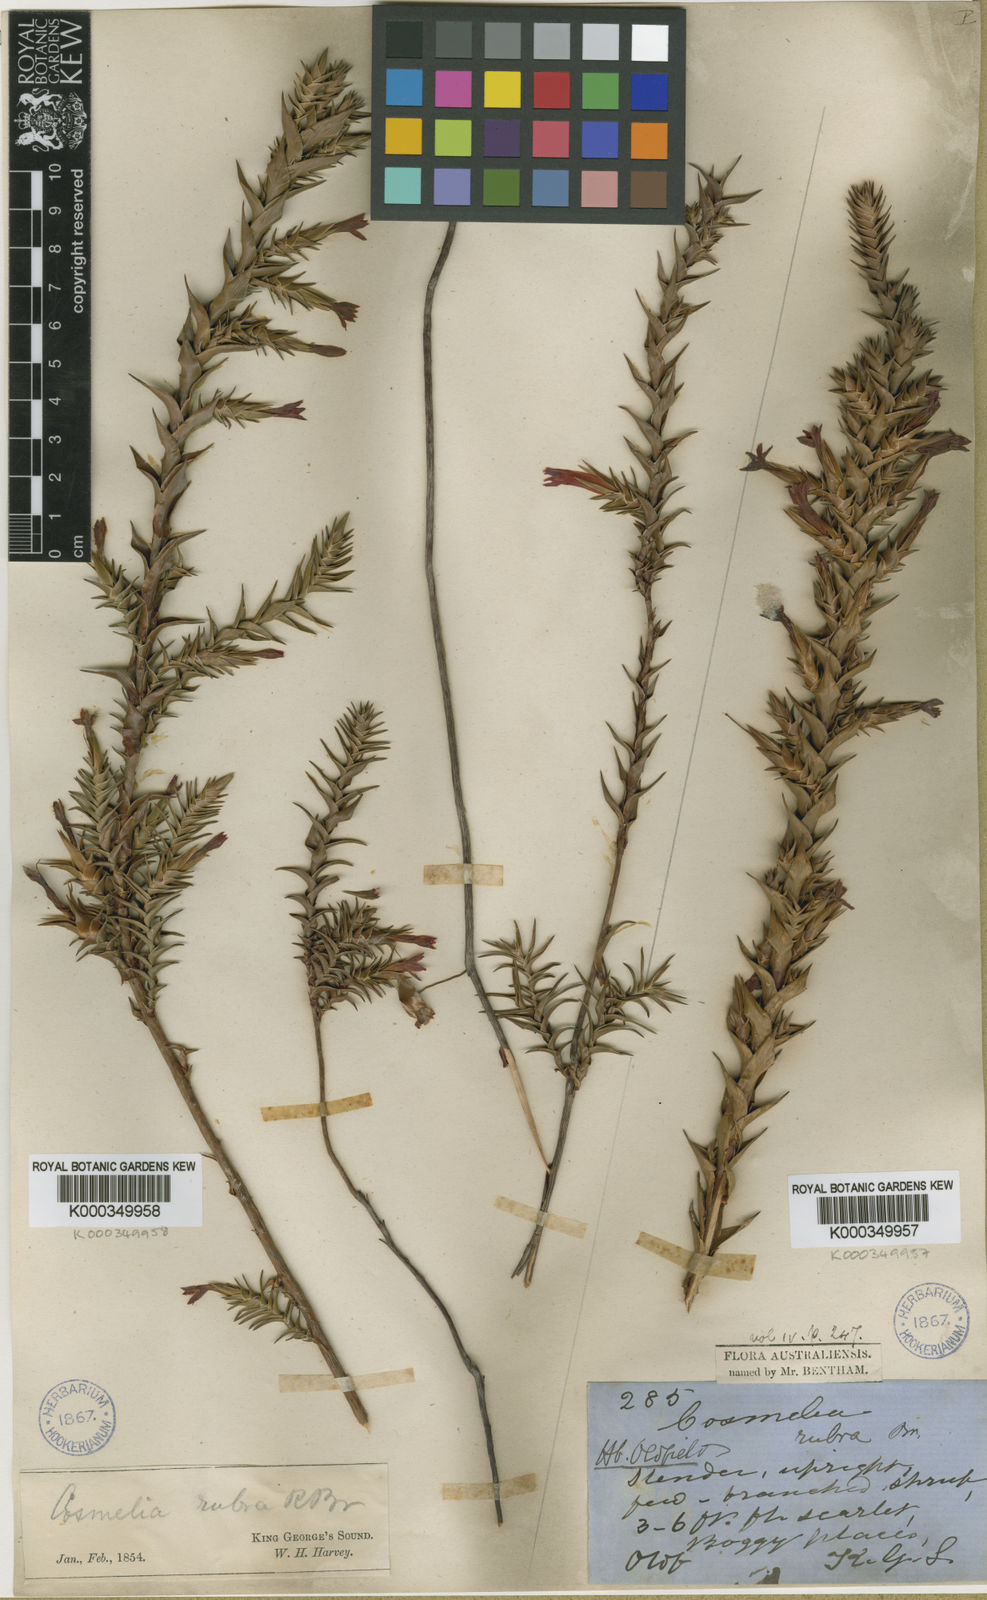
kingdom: Plantae
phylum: Tracheophyta
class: Magnoliopsida
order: Ericales
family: Ericaceae
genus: Cosmelia
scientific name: Cosmelia rubra
